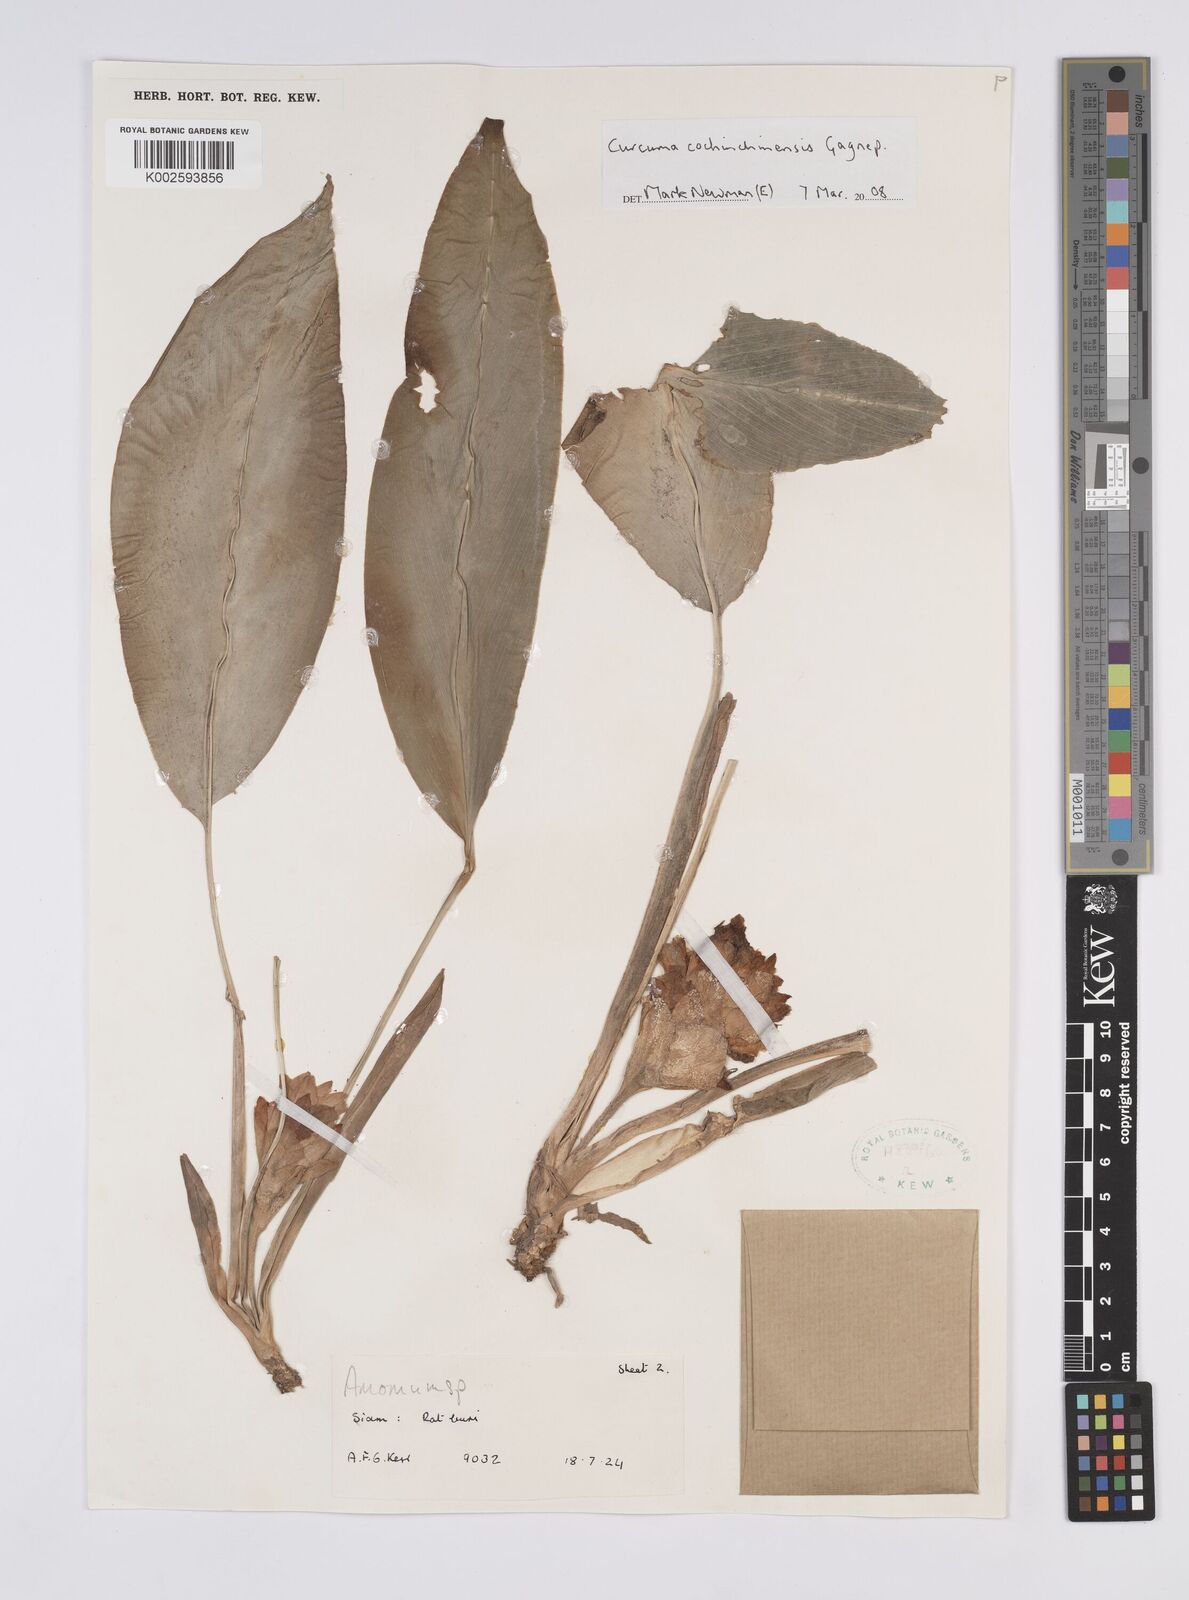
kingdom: Plantae
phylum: Tracheophyta
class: Liliopsida
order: Zingiberales
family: Zingiberaceae
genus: Curcuma
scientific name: Curcuma cochinchinensis
